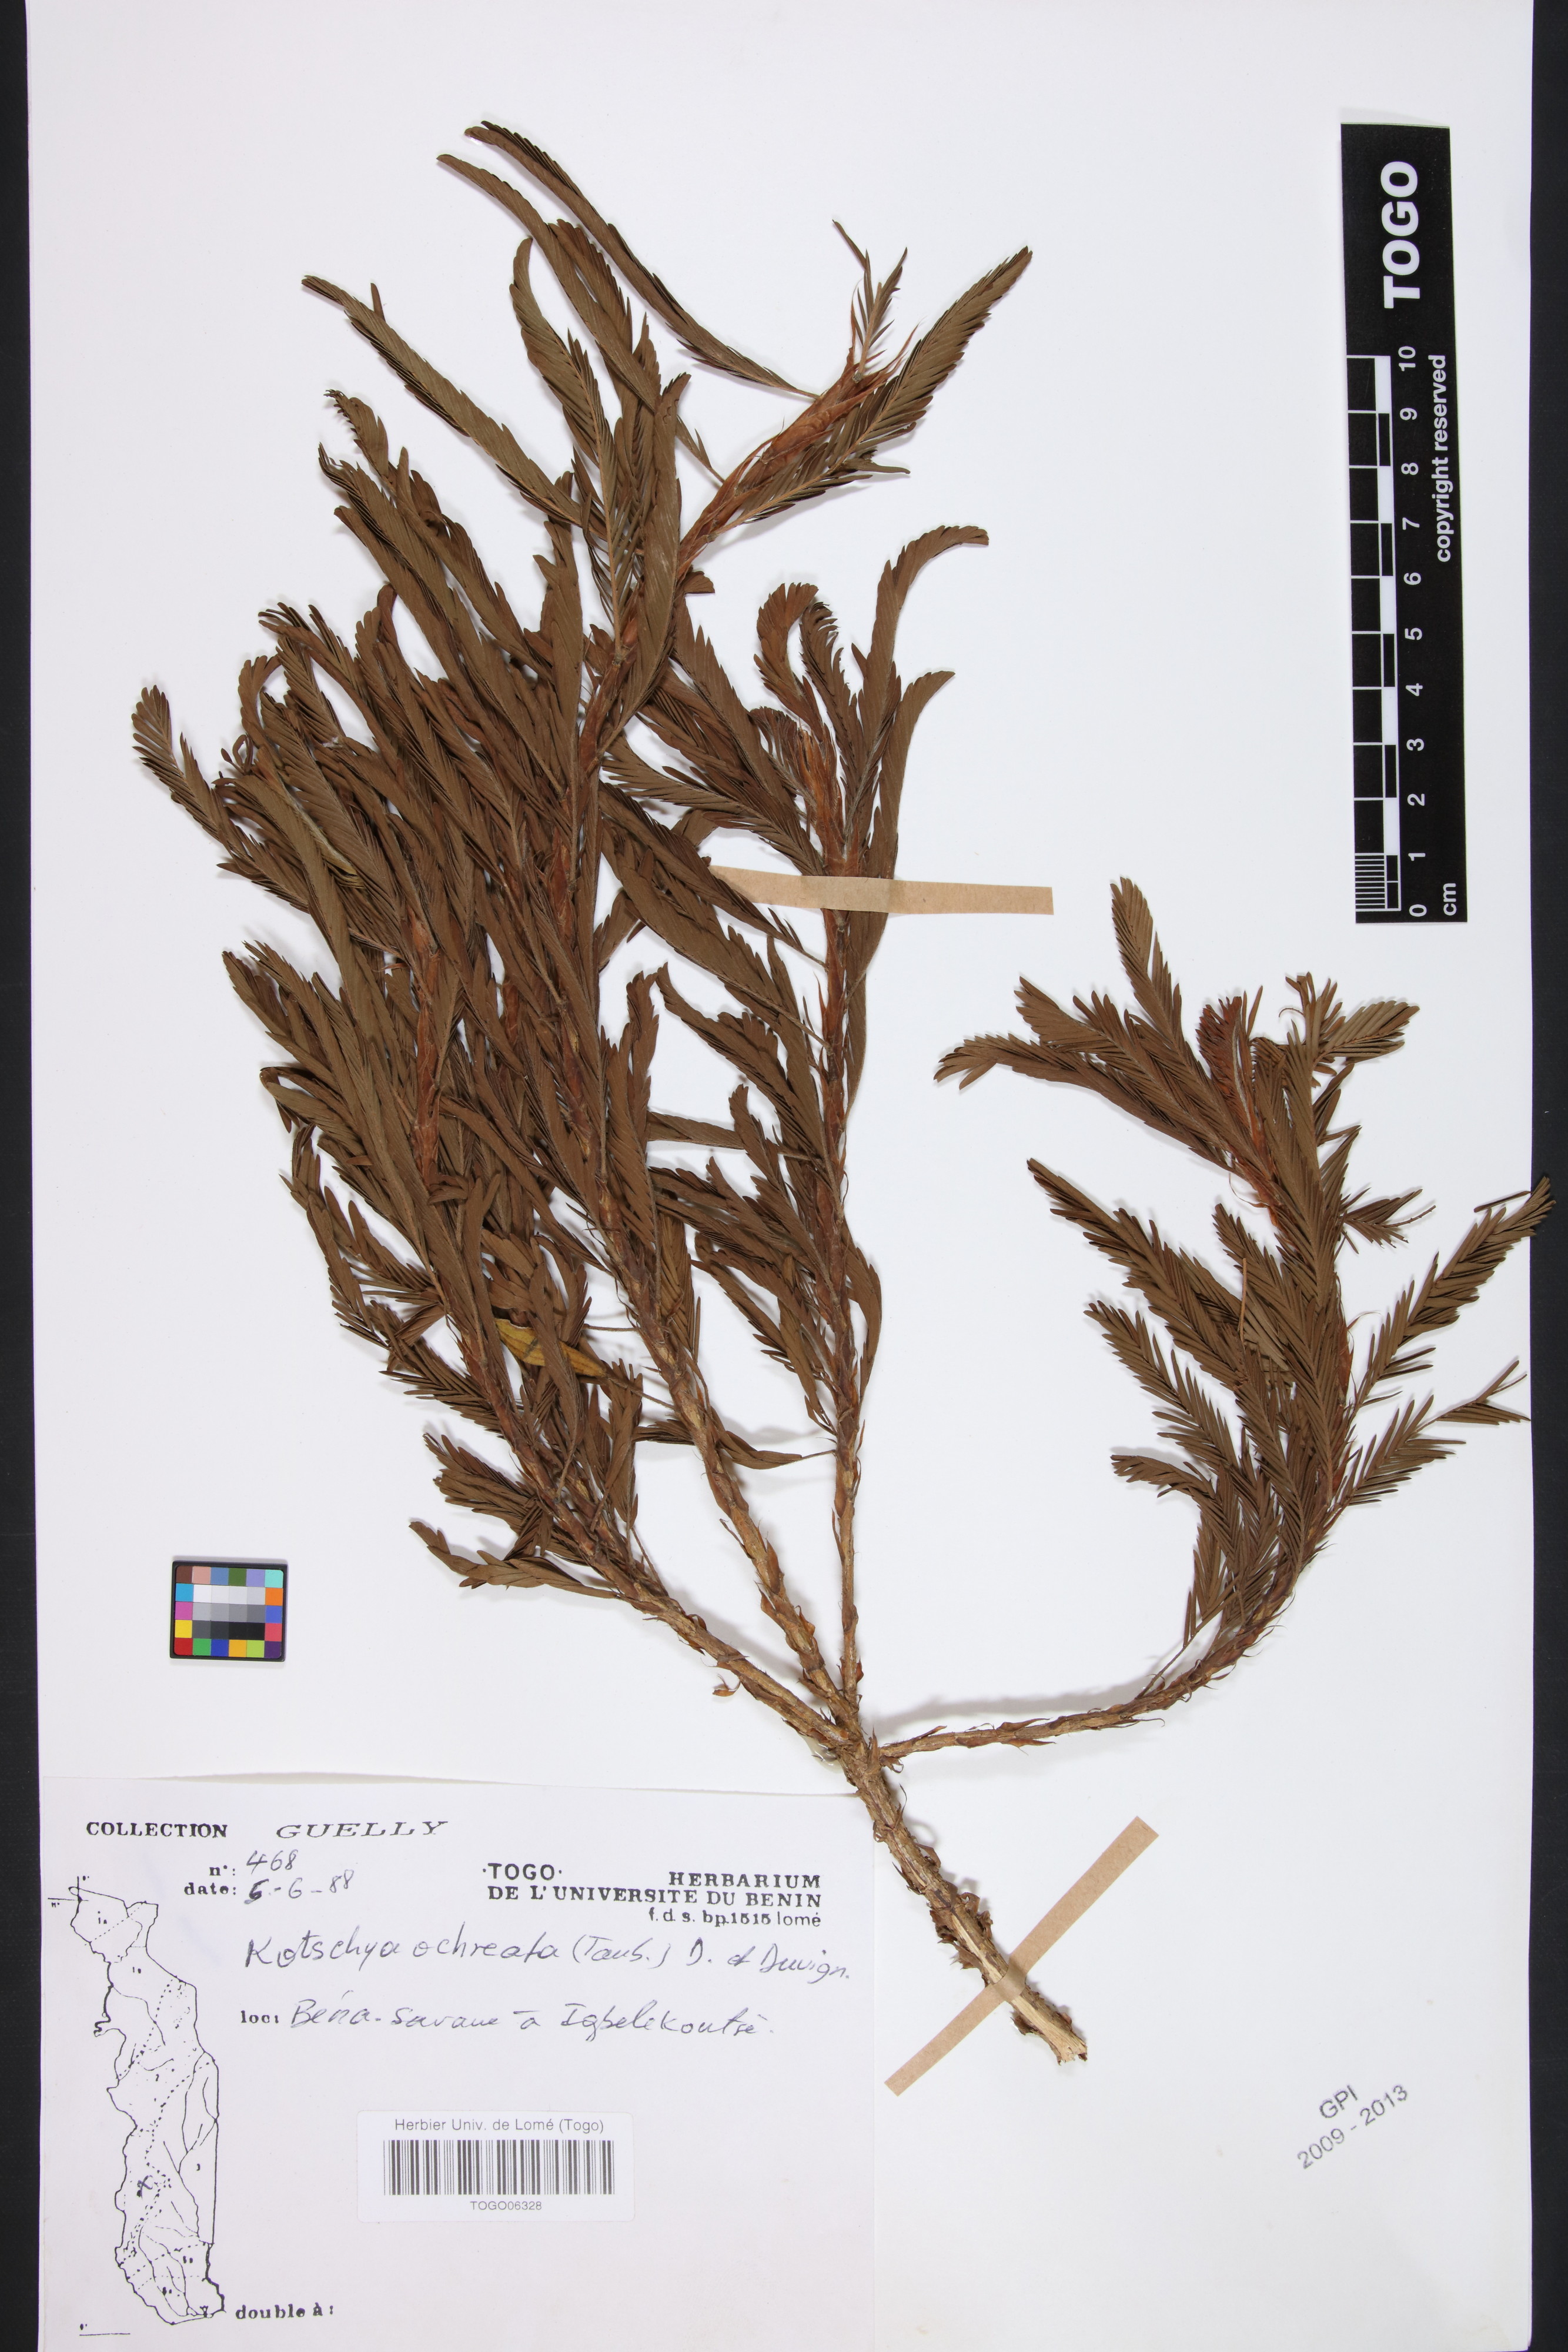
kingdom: Plantae
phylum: Tracheophyta
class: Magnoliopsida
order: Fabales
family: Fabaceae
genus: Kotschya
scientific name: Kotschya ochreata
